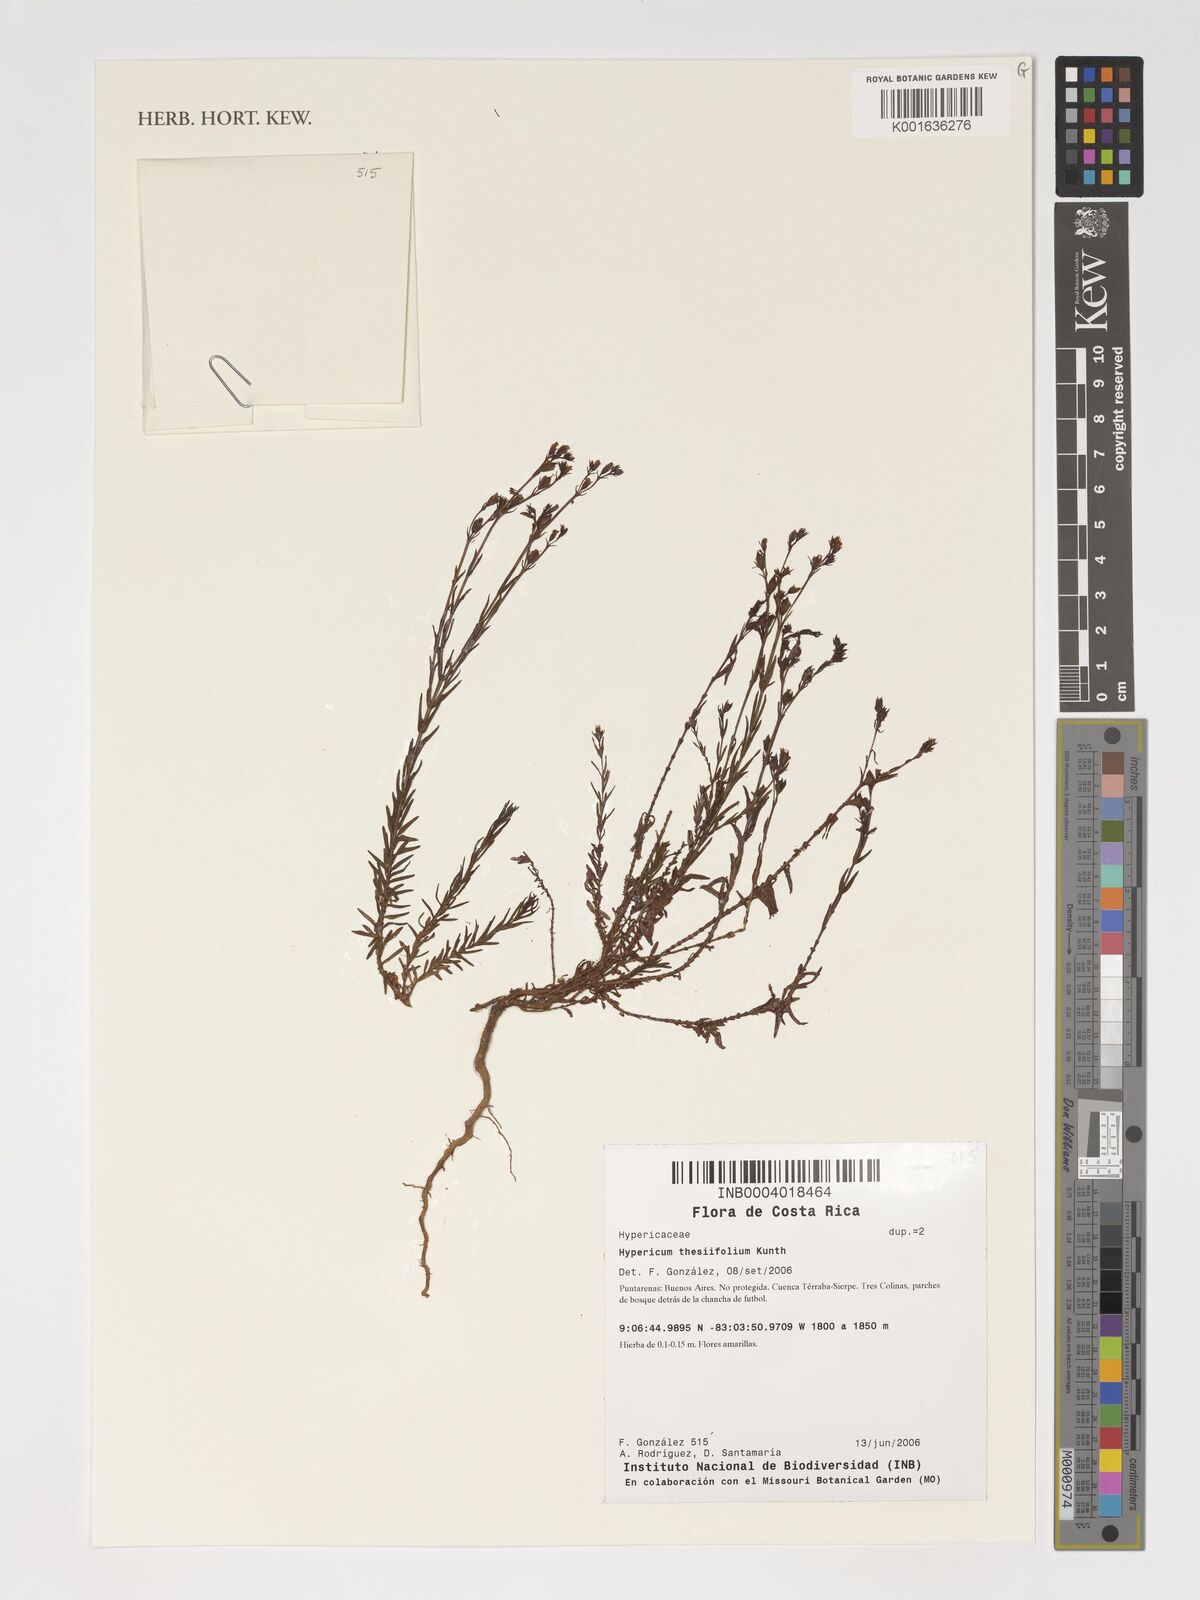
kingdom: Plantae
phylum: Tracheophyta
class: Magnoliopsida
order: Malpighiales
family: Hypericaceae
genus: Hypericum
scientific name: Hypericum thesiifolium
